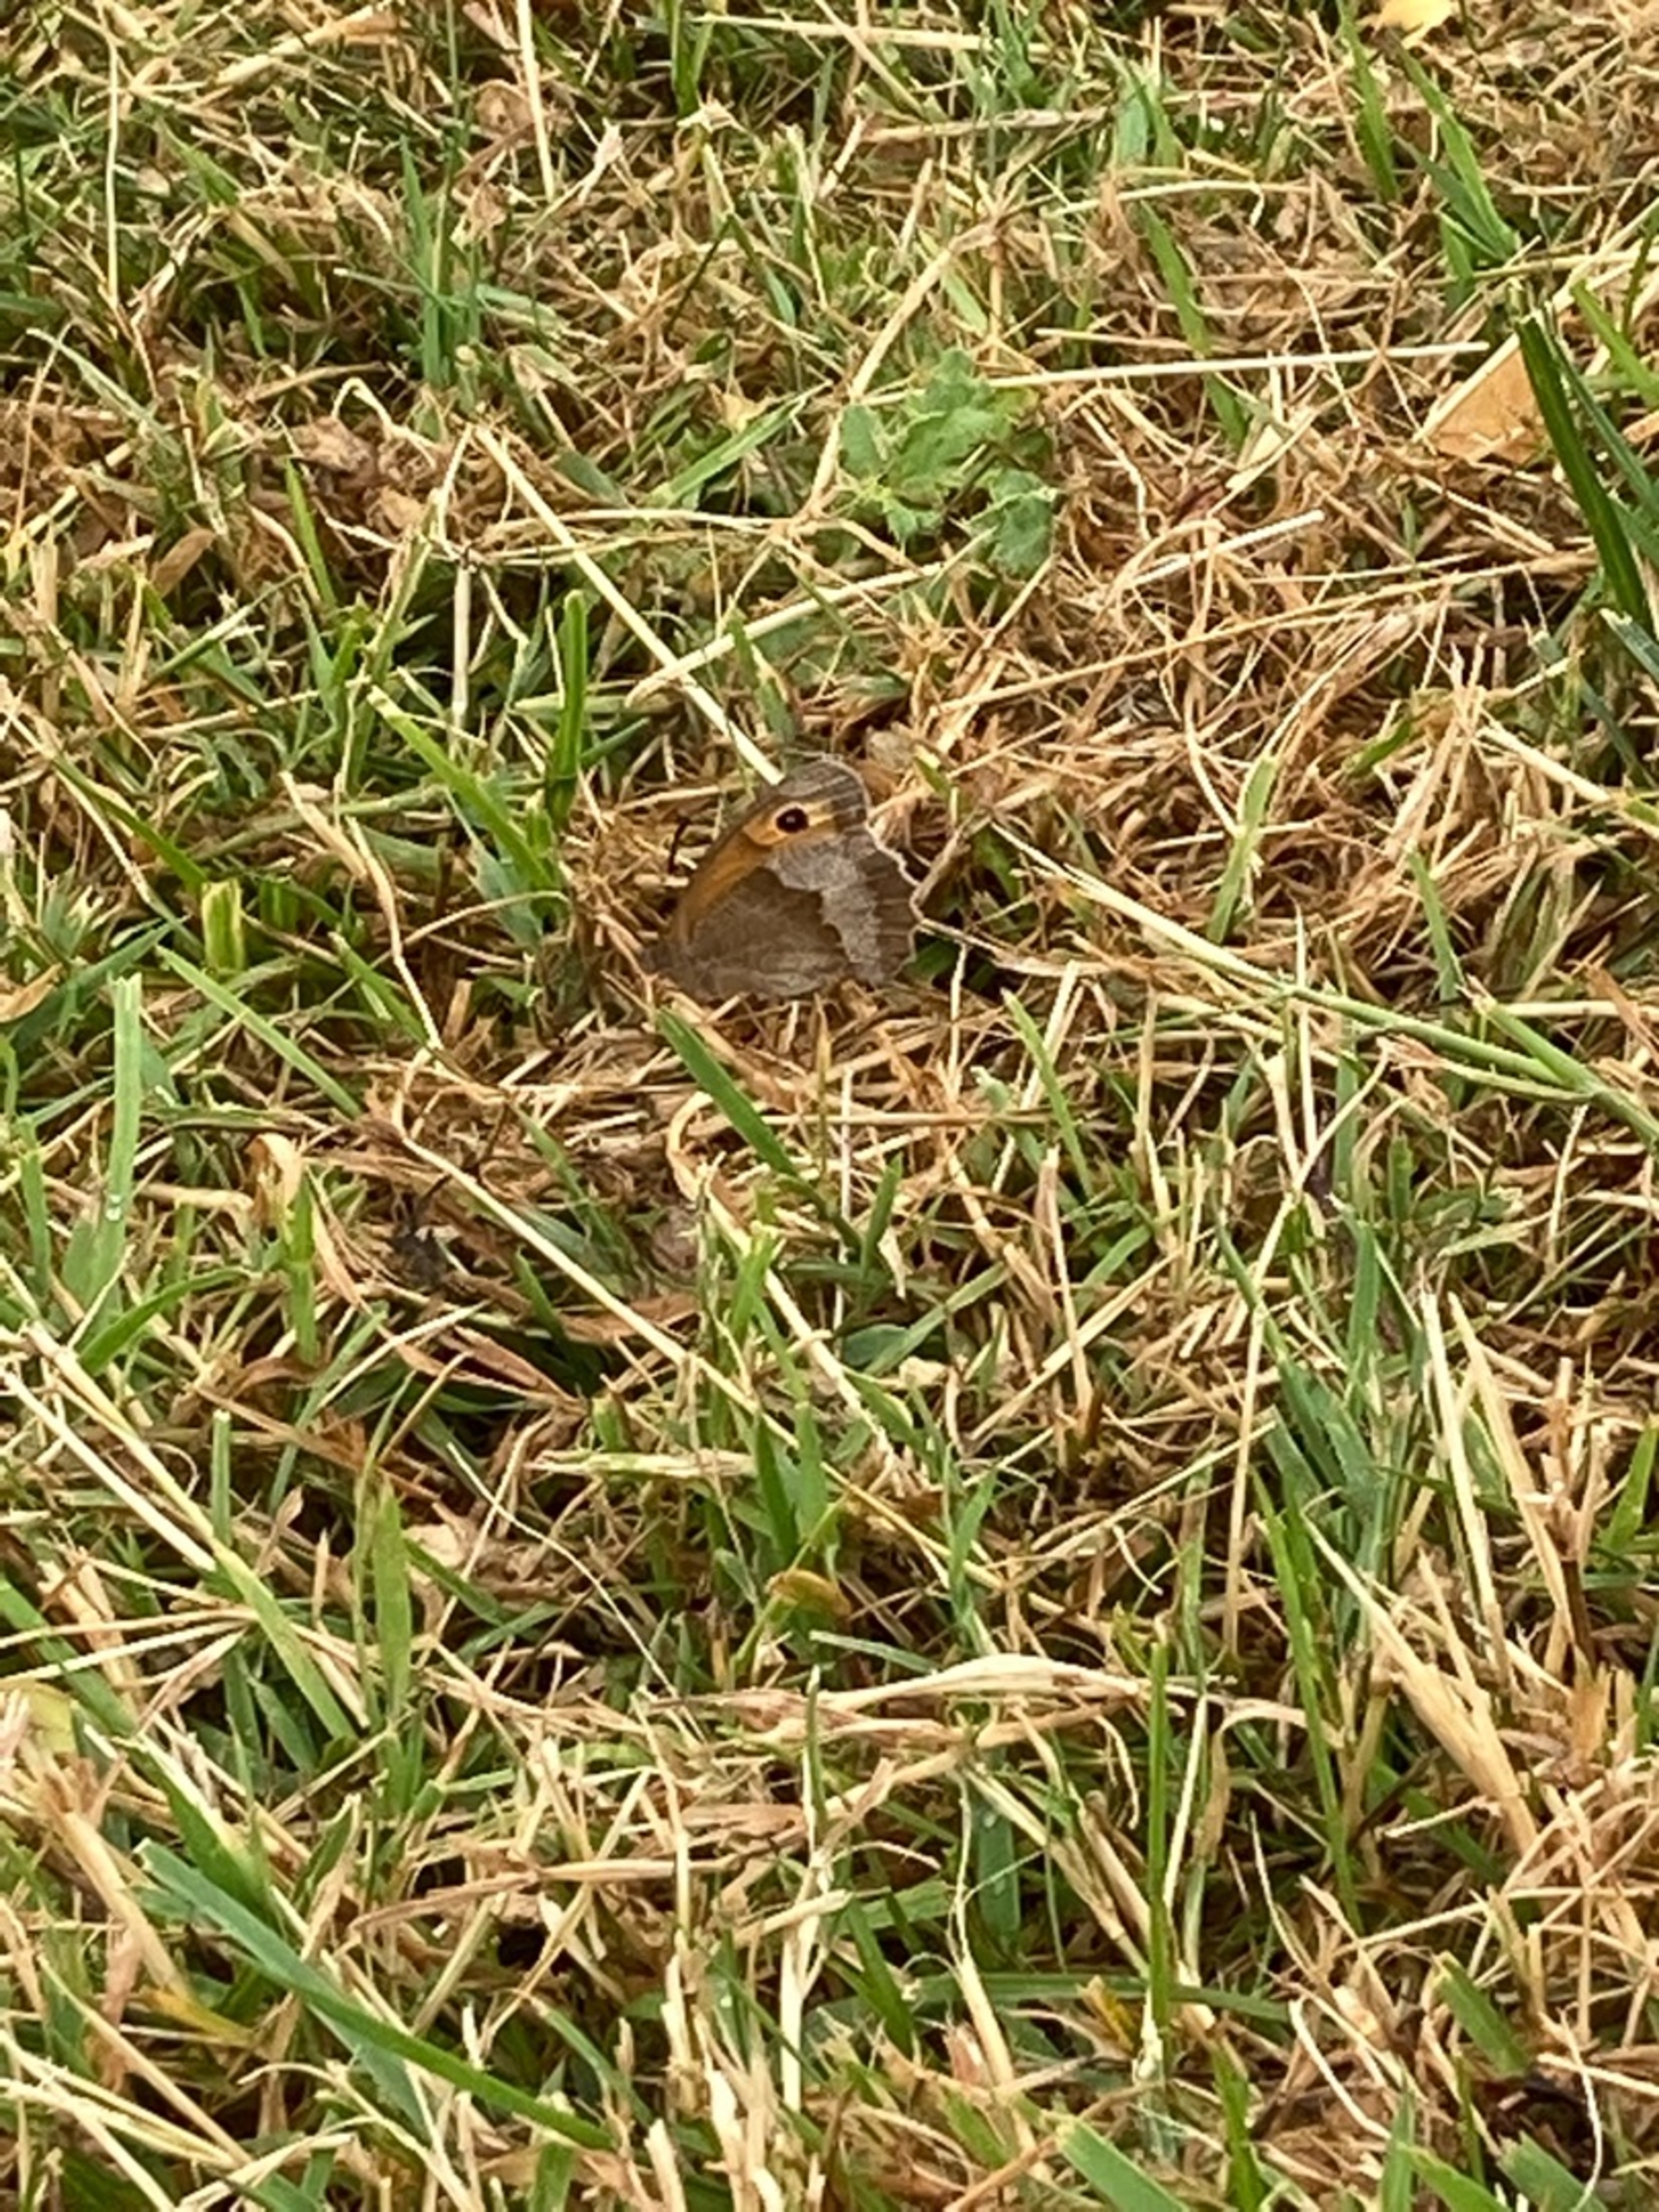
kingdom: Animalia
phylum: Arthropoda
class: Insecta
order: Lepidoptera
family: Nymphalidae
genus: Maniola
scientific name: Maniola jurtina
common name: Græsrandøje
